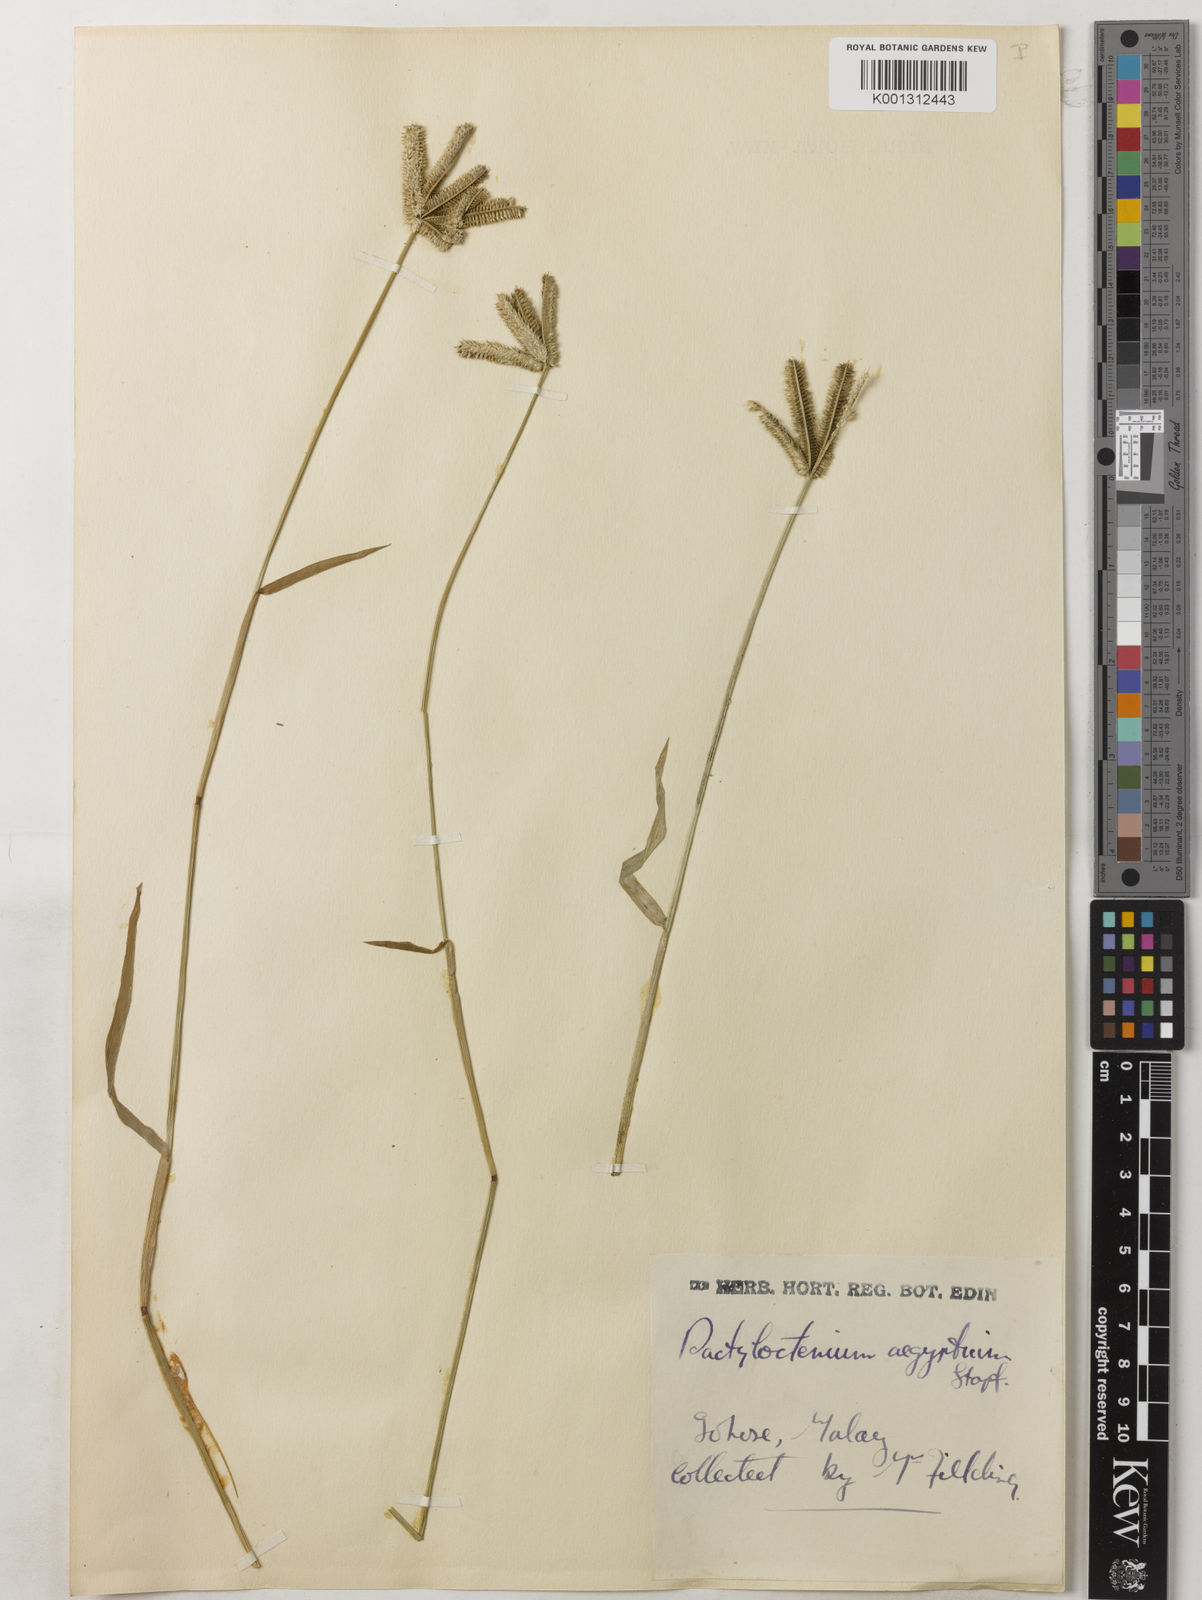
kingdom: Plantae
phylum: Tracheophyta
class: Liliopsida
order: Poales
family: Poaceae
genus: Dactyloctenium
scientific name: Dactyloctenium aegyptium
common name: Egyptian grass
